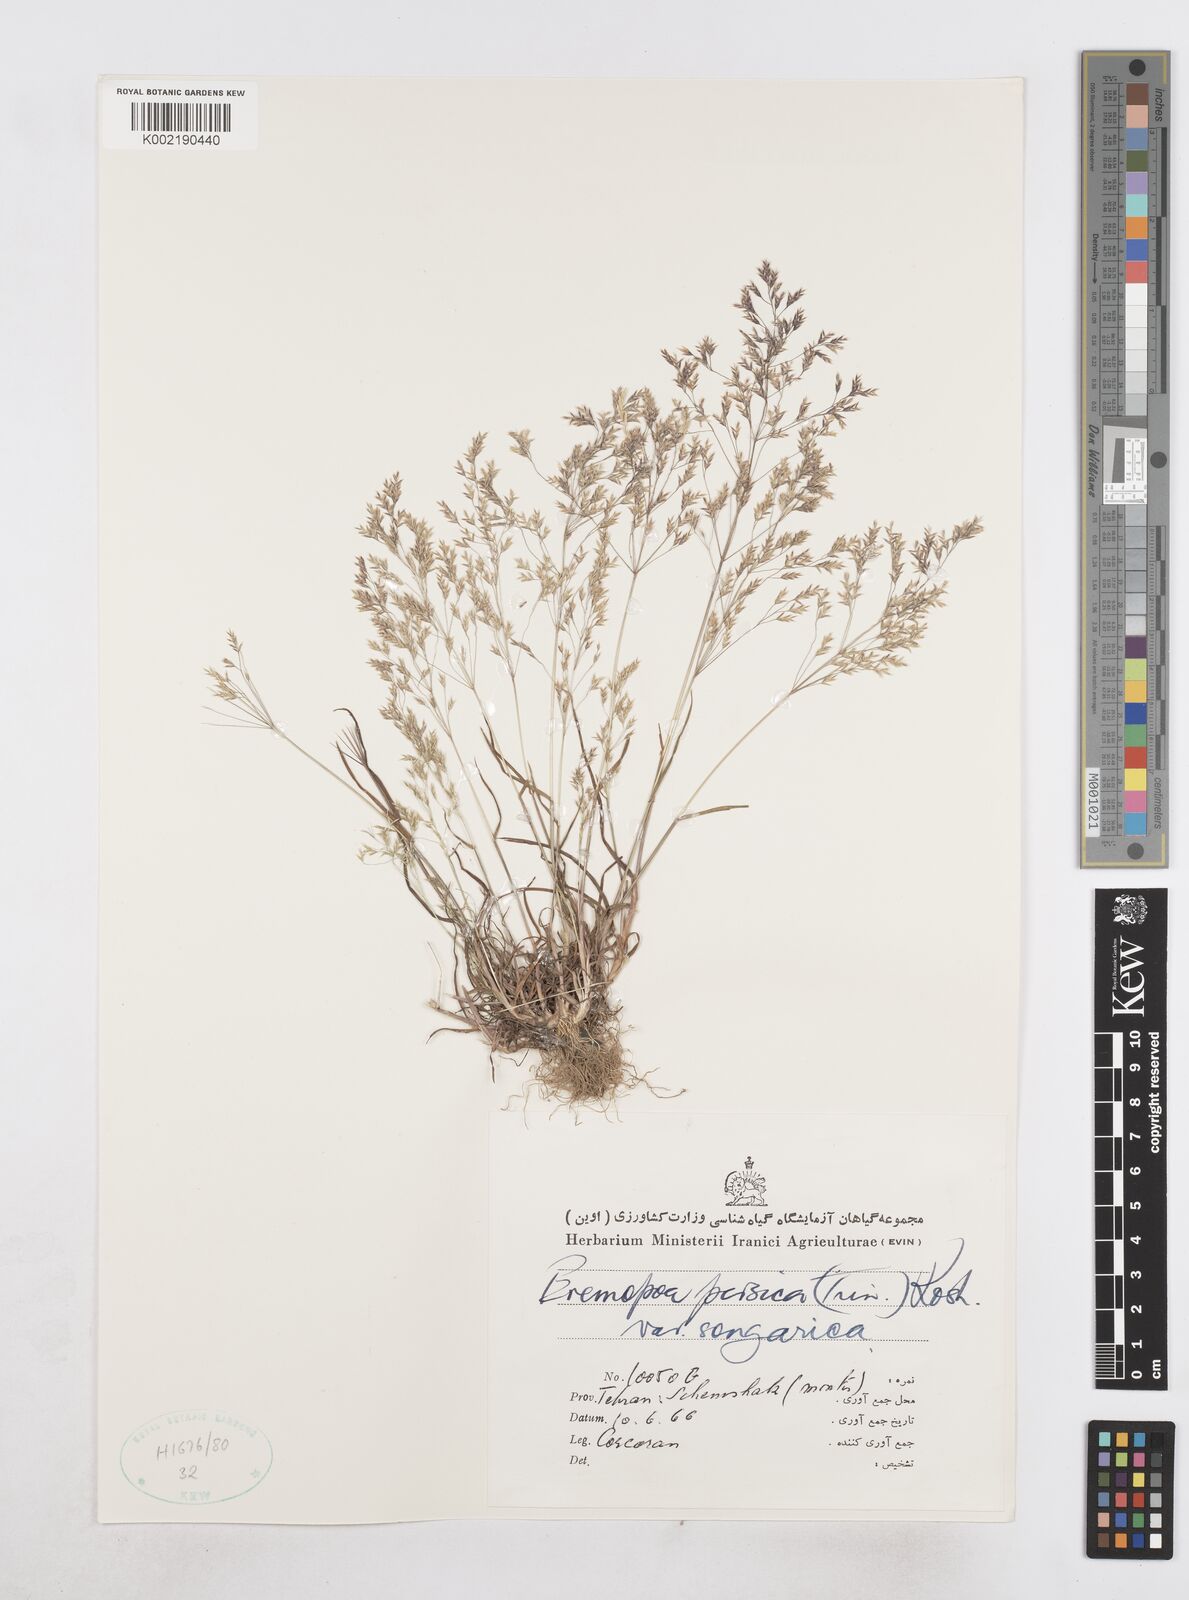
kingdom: Plantae
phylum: Tracheophyta
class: Liliopsida
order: Poales
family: Poaceae
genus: Poa
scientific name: Poa diaphora
